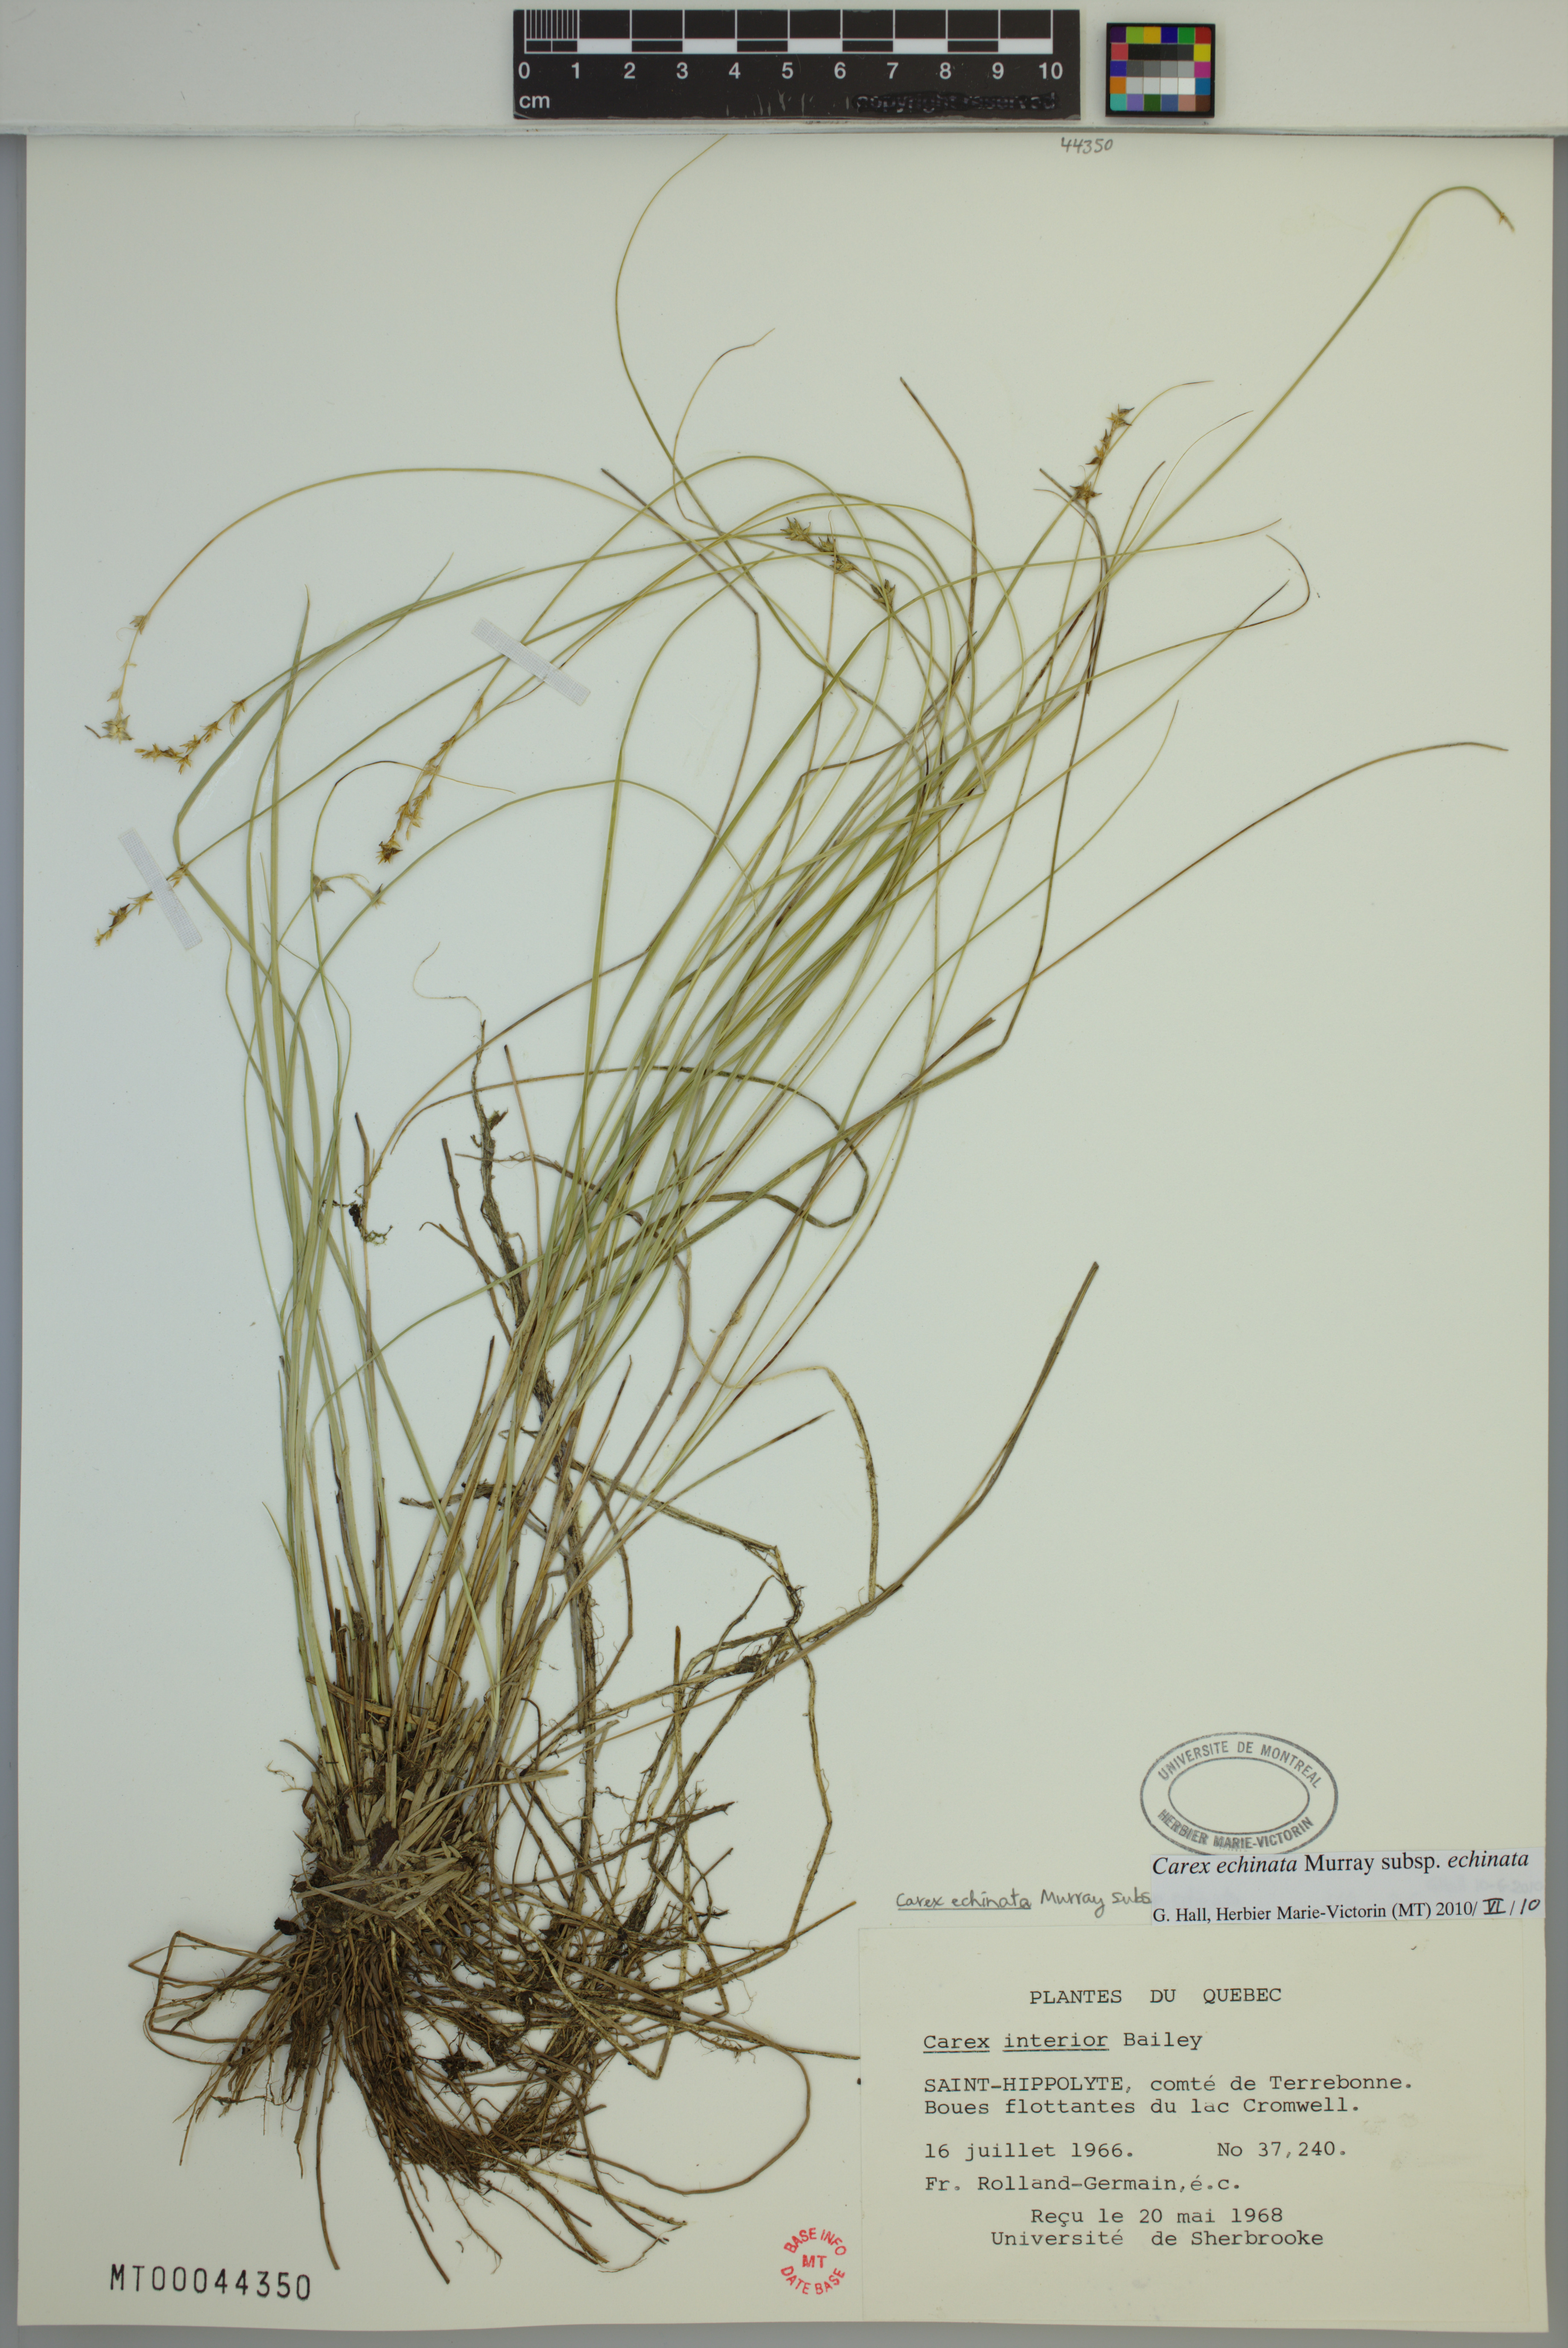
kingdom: Plantae
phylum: Tracheophyta
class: Liliopsida
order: Poales
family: Cyperaceae
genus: Carex
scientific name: Carex echinata
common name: Star sedge
